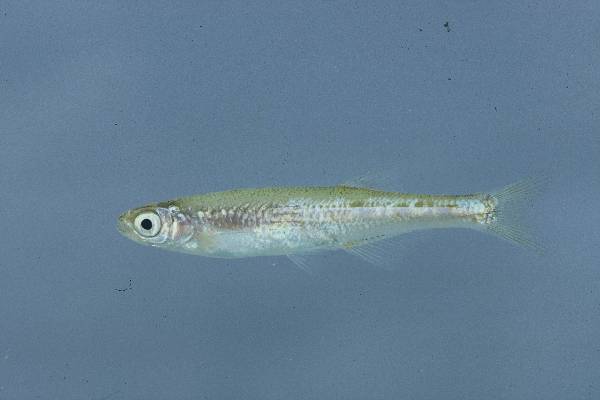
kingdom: Animalia
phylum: Chordata
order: Cypriniformes
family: Cyprinidae
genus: Engraulicypris
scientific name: Engraulicypris brevianalis
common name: River sardine
